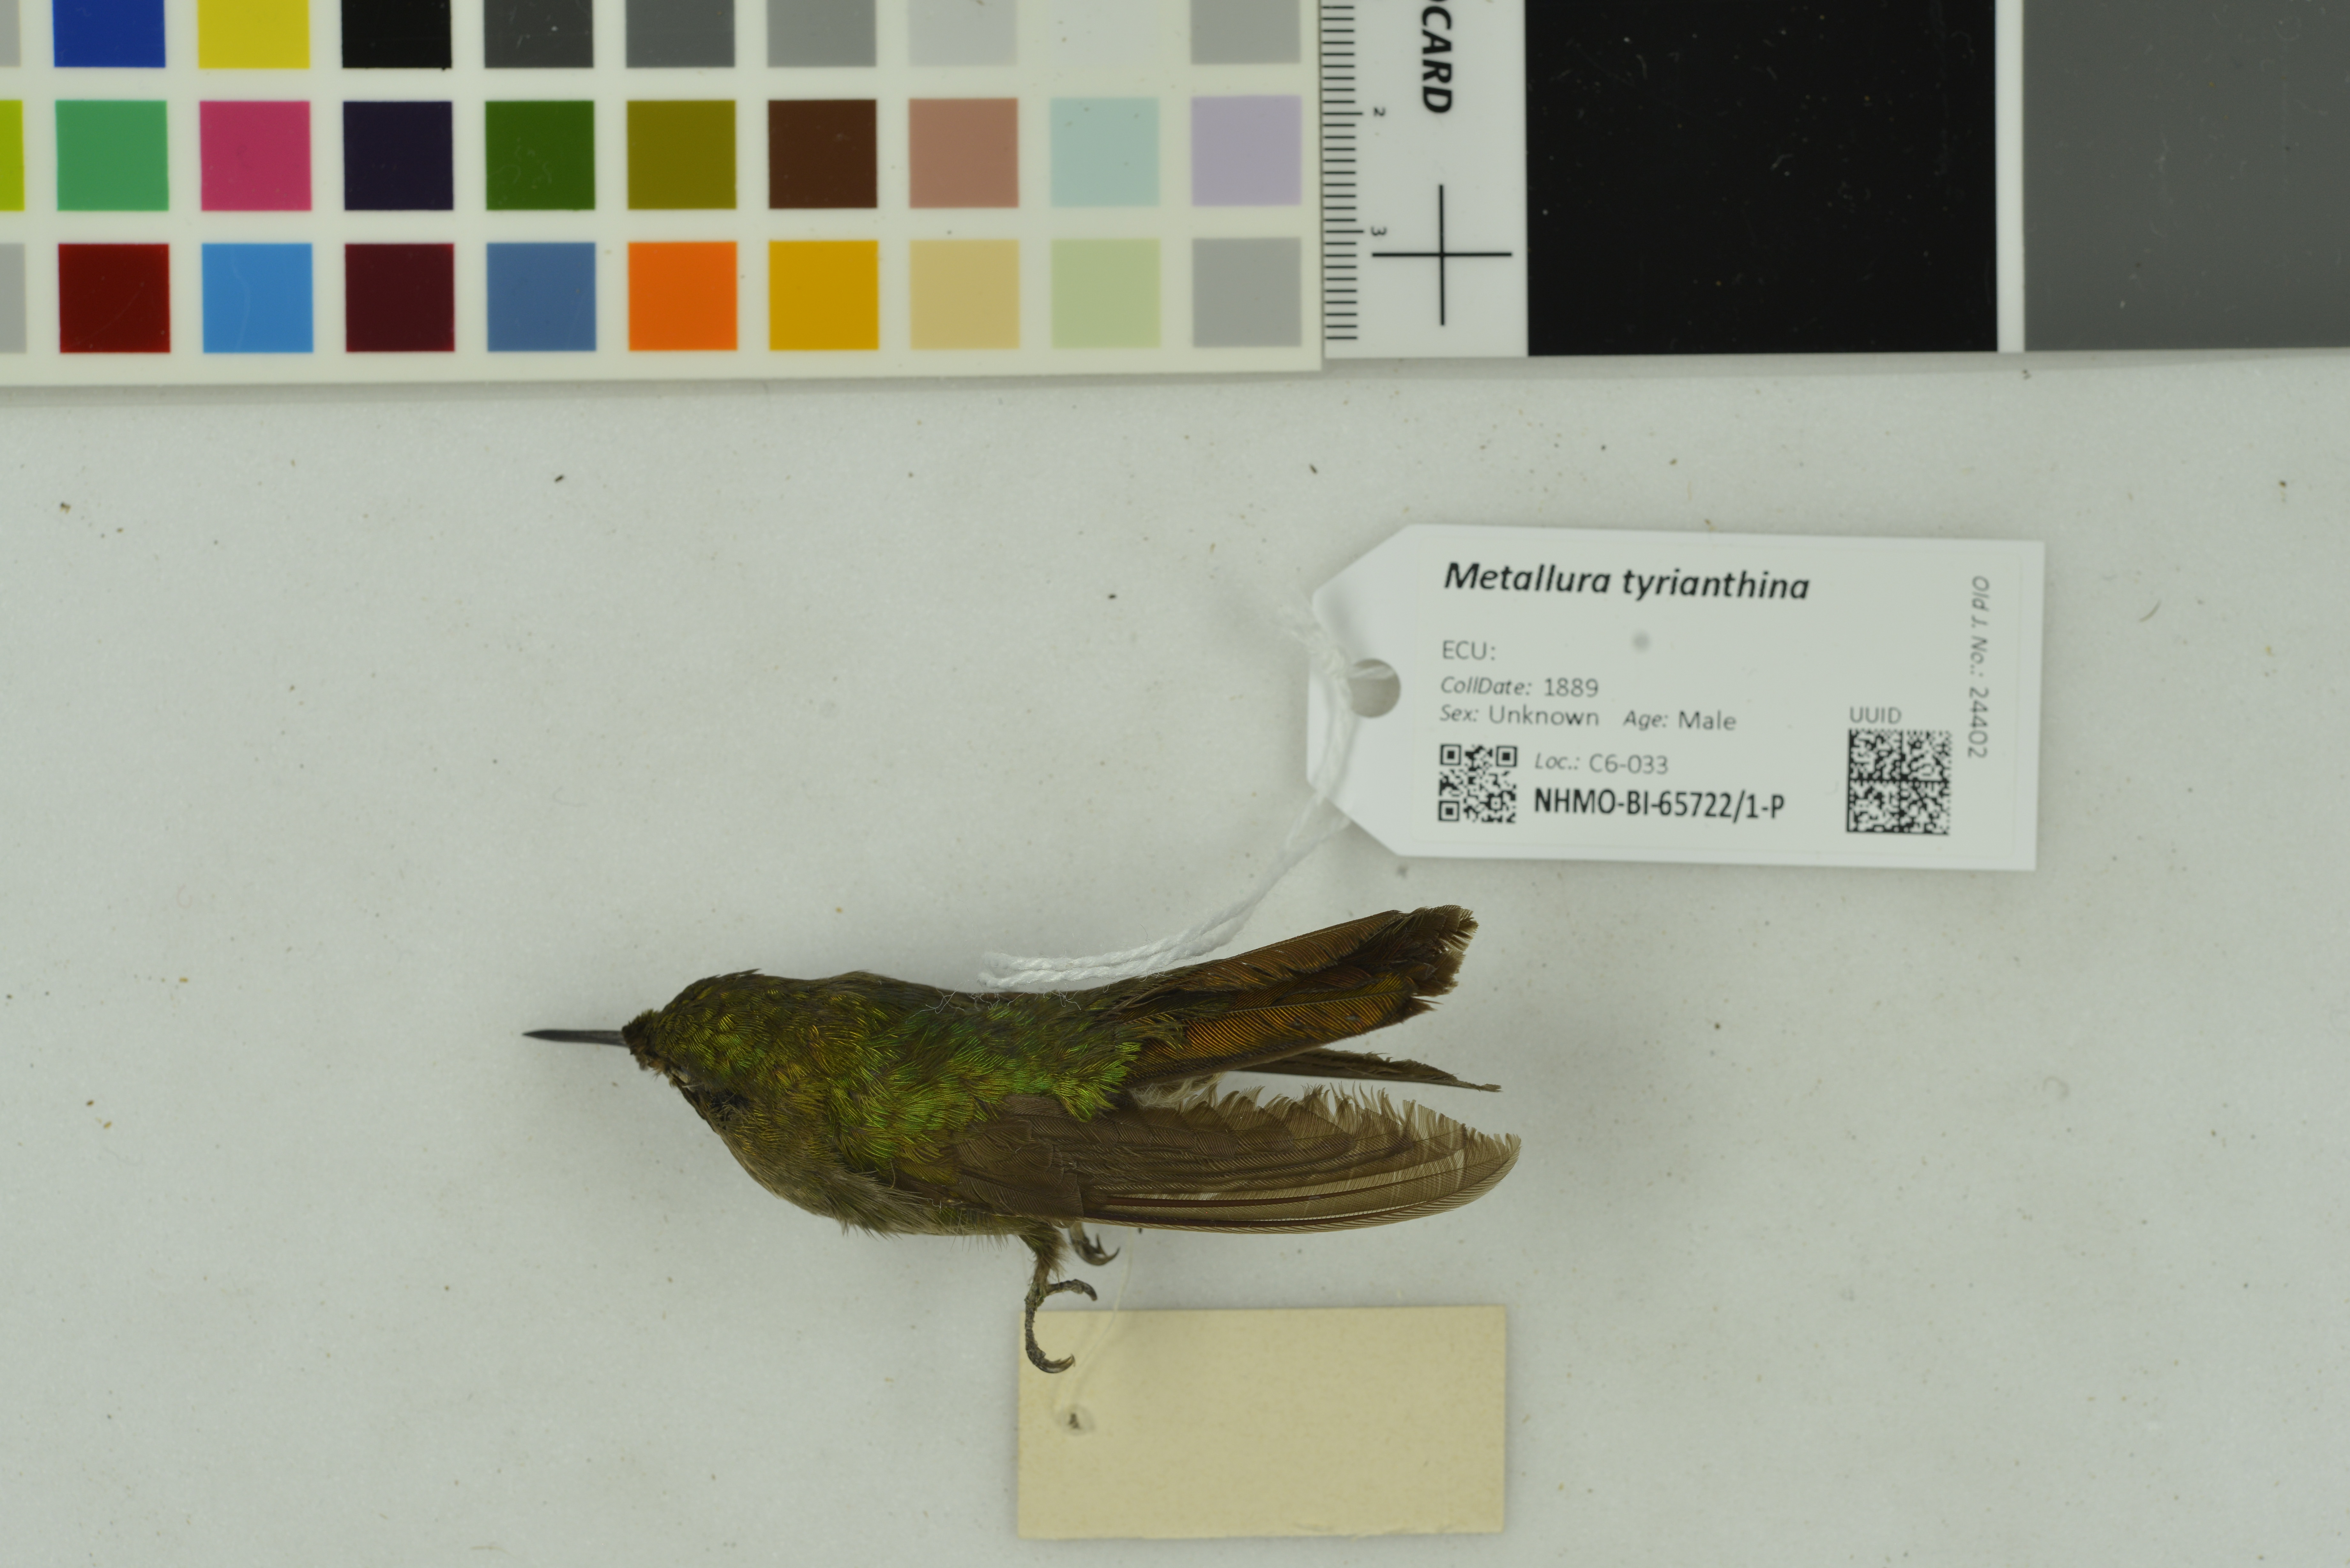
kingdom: Animalia
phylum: Chordata
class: Aves
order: Apodiformes
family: Trochilidae
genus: Metallura
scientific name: Metallura tyrianthina
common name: Tyrian metaltail
